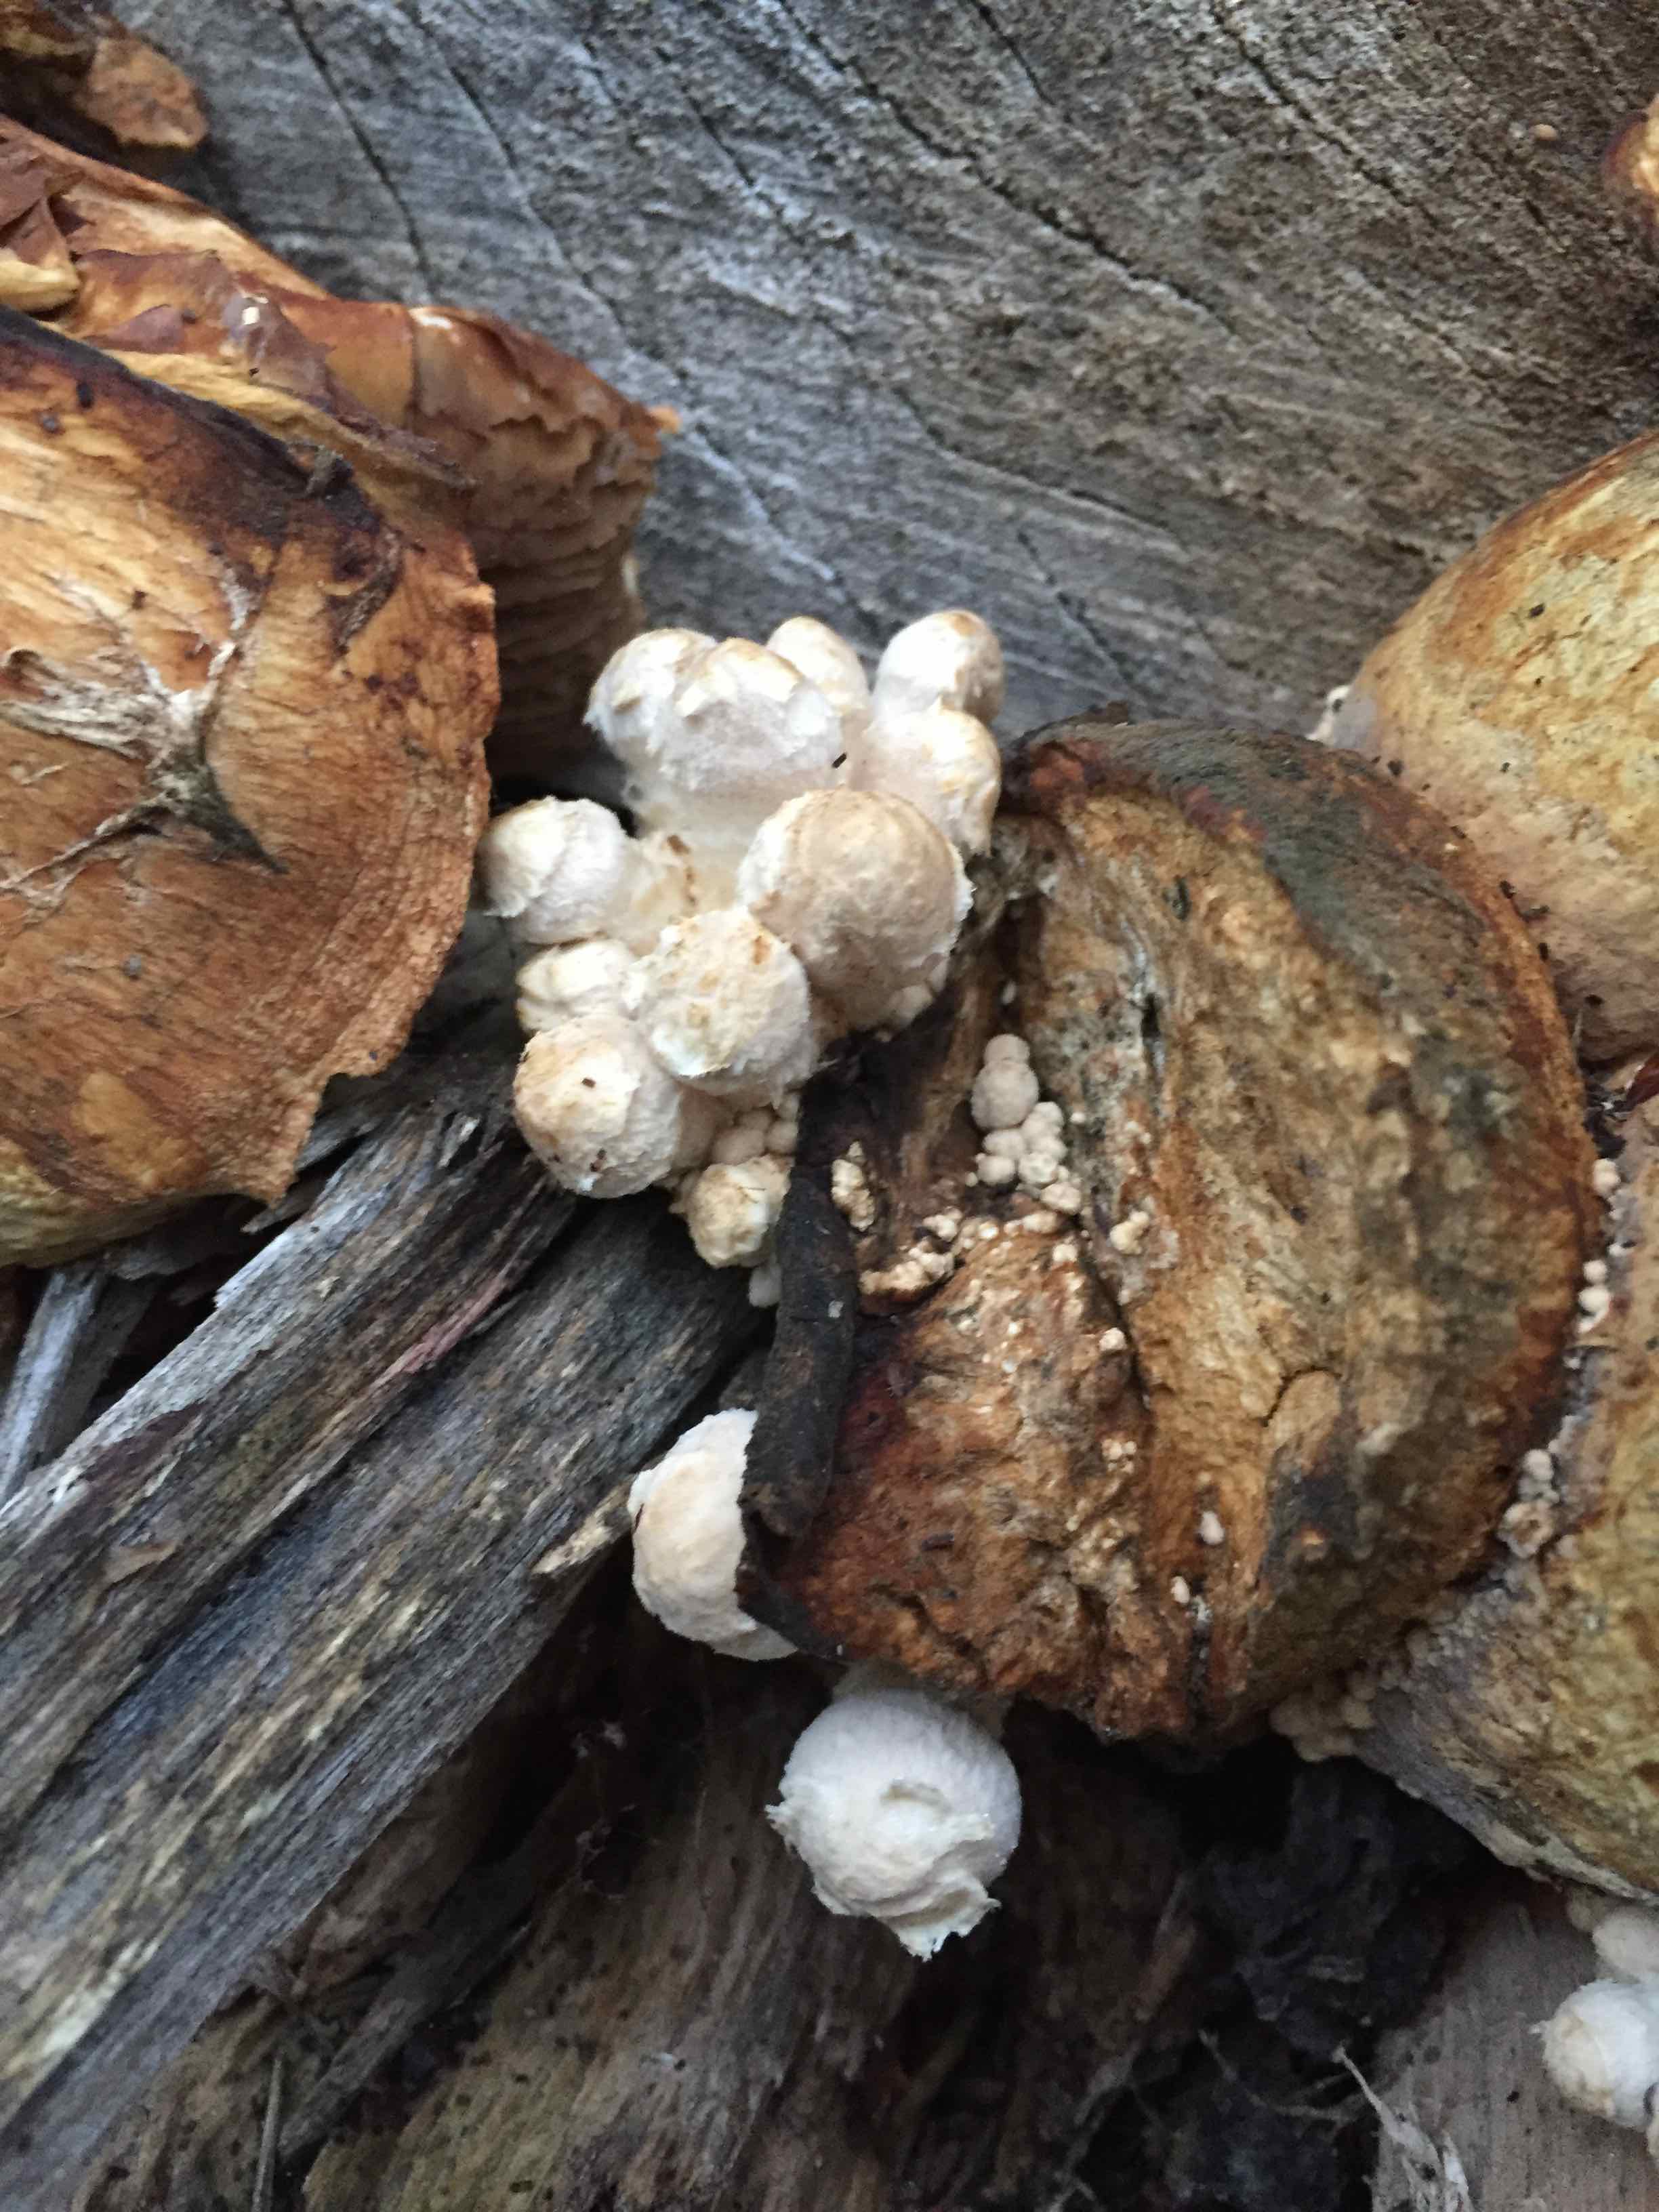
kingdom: Fungi
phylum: Basidiomycota
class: Agaricomycetes
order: Agaricales
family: Strophariaceae
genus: Pholiota
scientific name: Pholiota populnea
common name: poppel-kæmpeskælhat
